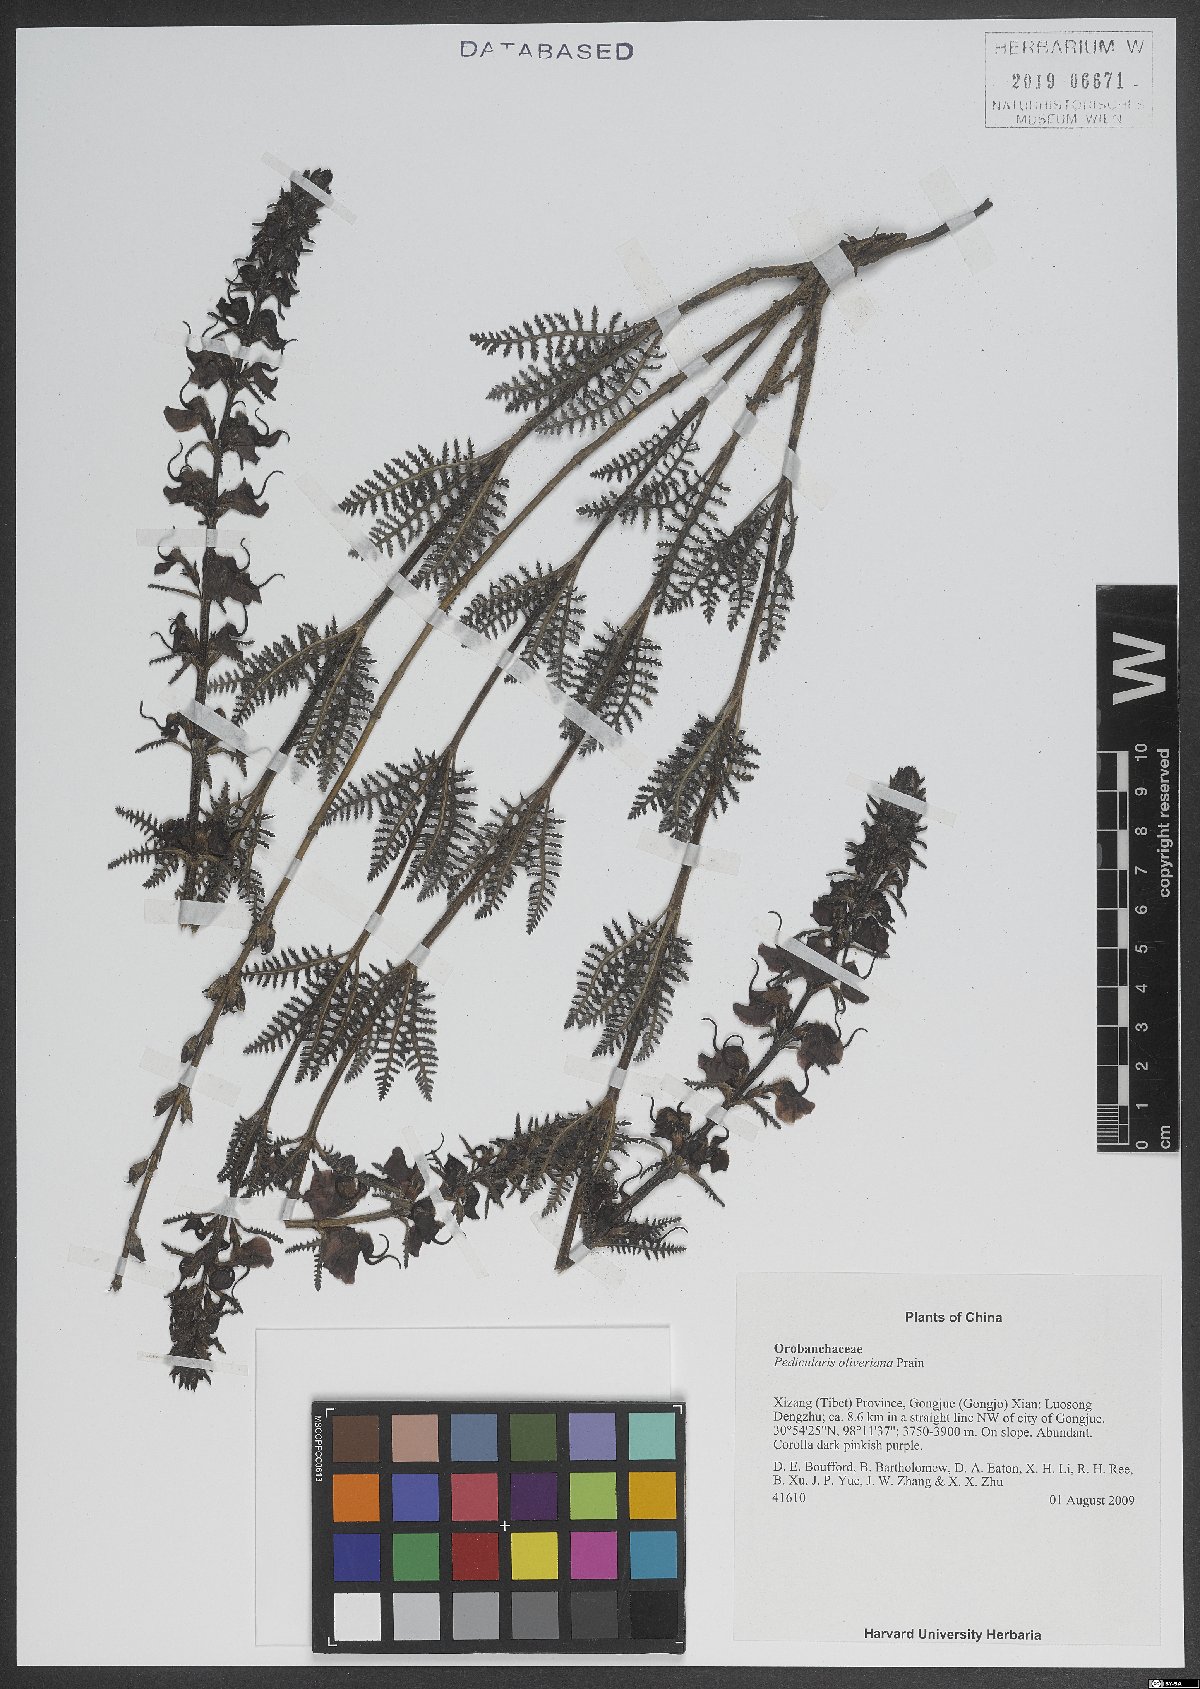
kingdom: Plantae
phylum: Tracheophyta
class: Magnoliopsida
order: Lamiales
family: Orobanchaceae
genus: Pedicularis
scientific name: Pedicularis
